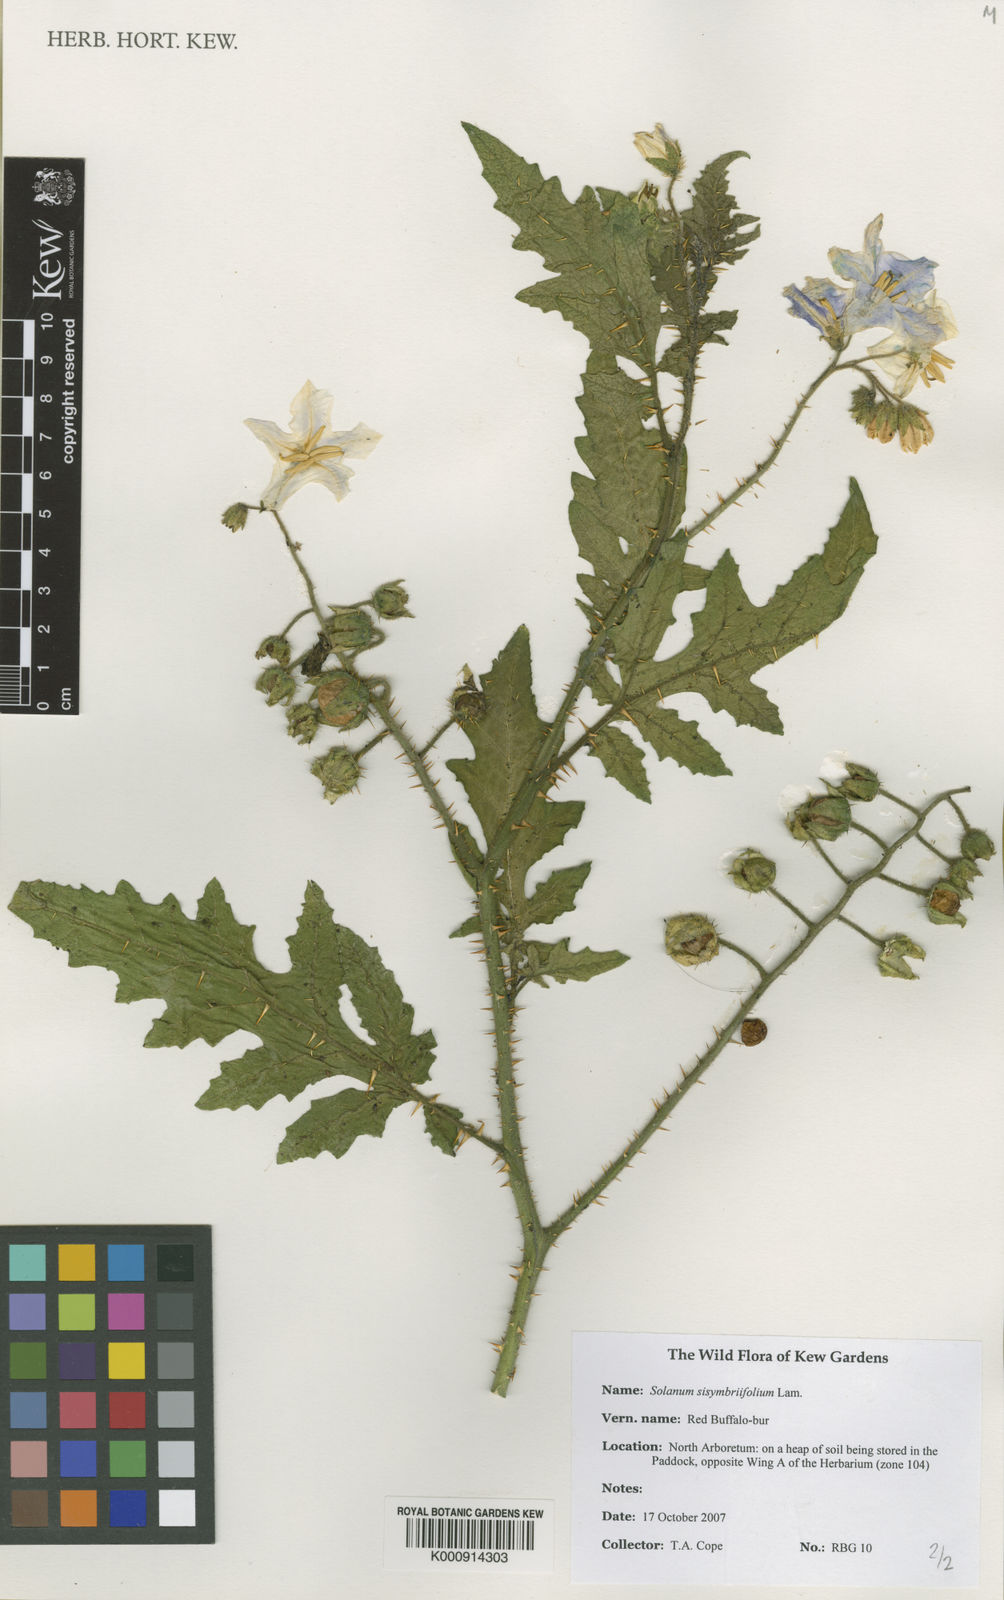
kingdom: Plantae
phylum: Tracheophyta
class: Magnoliopsida
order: Solanales
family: Solanaceae
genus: Solanum
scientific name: Solanum sisymbriifolium
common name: Red buffalo-bur
